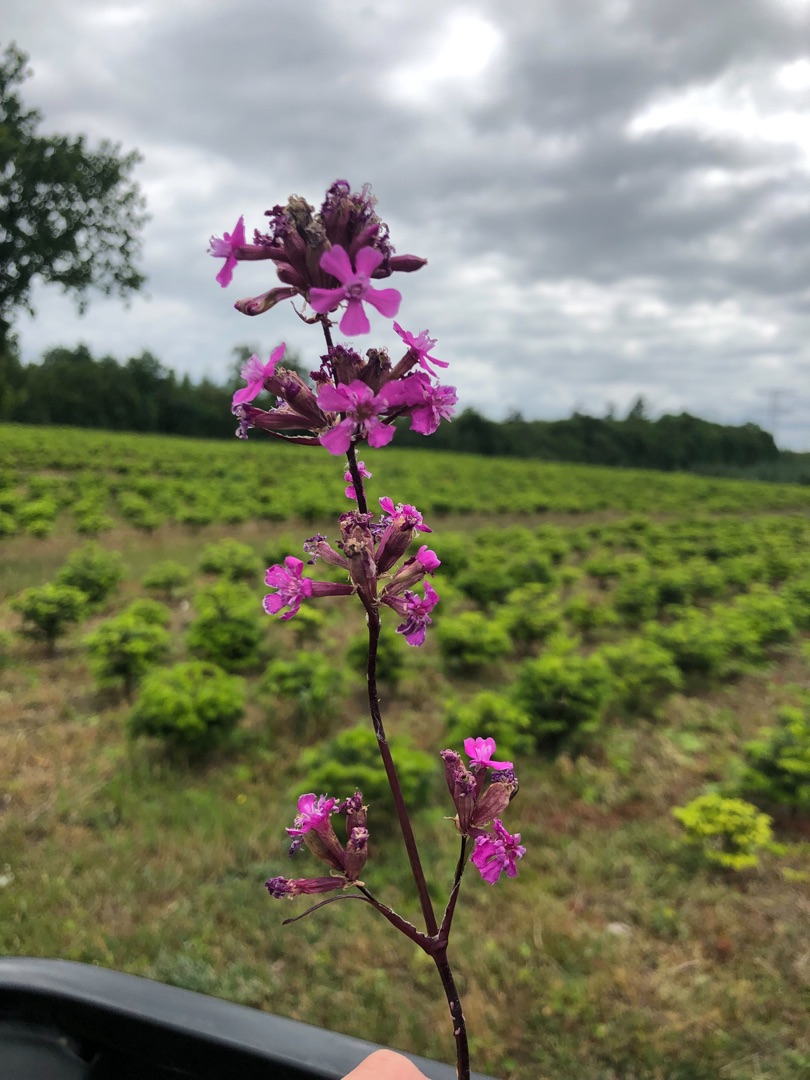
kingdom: Plantae
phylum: Tracheophyta
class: Magnoliopsida
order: Caryophyllales
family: Caryophyllaceae
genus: Viscaria
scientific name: Viscaria vulgaris
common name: Tjærenellike
